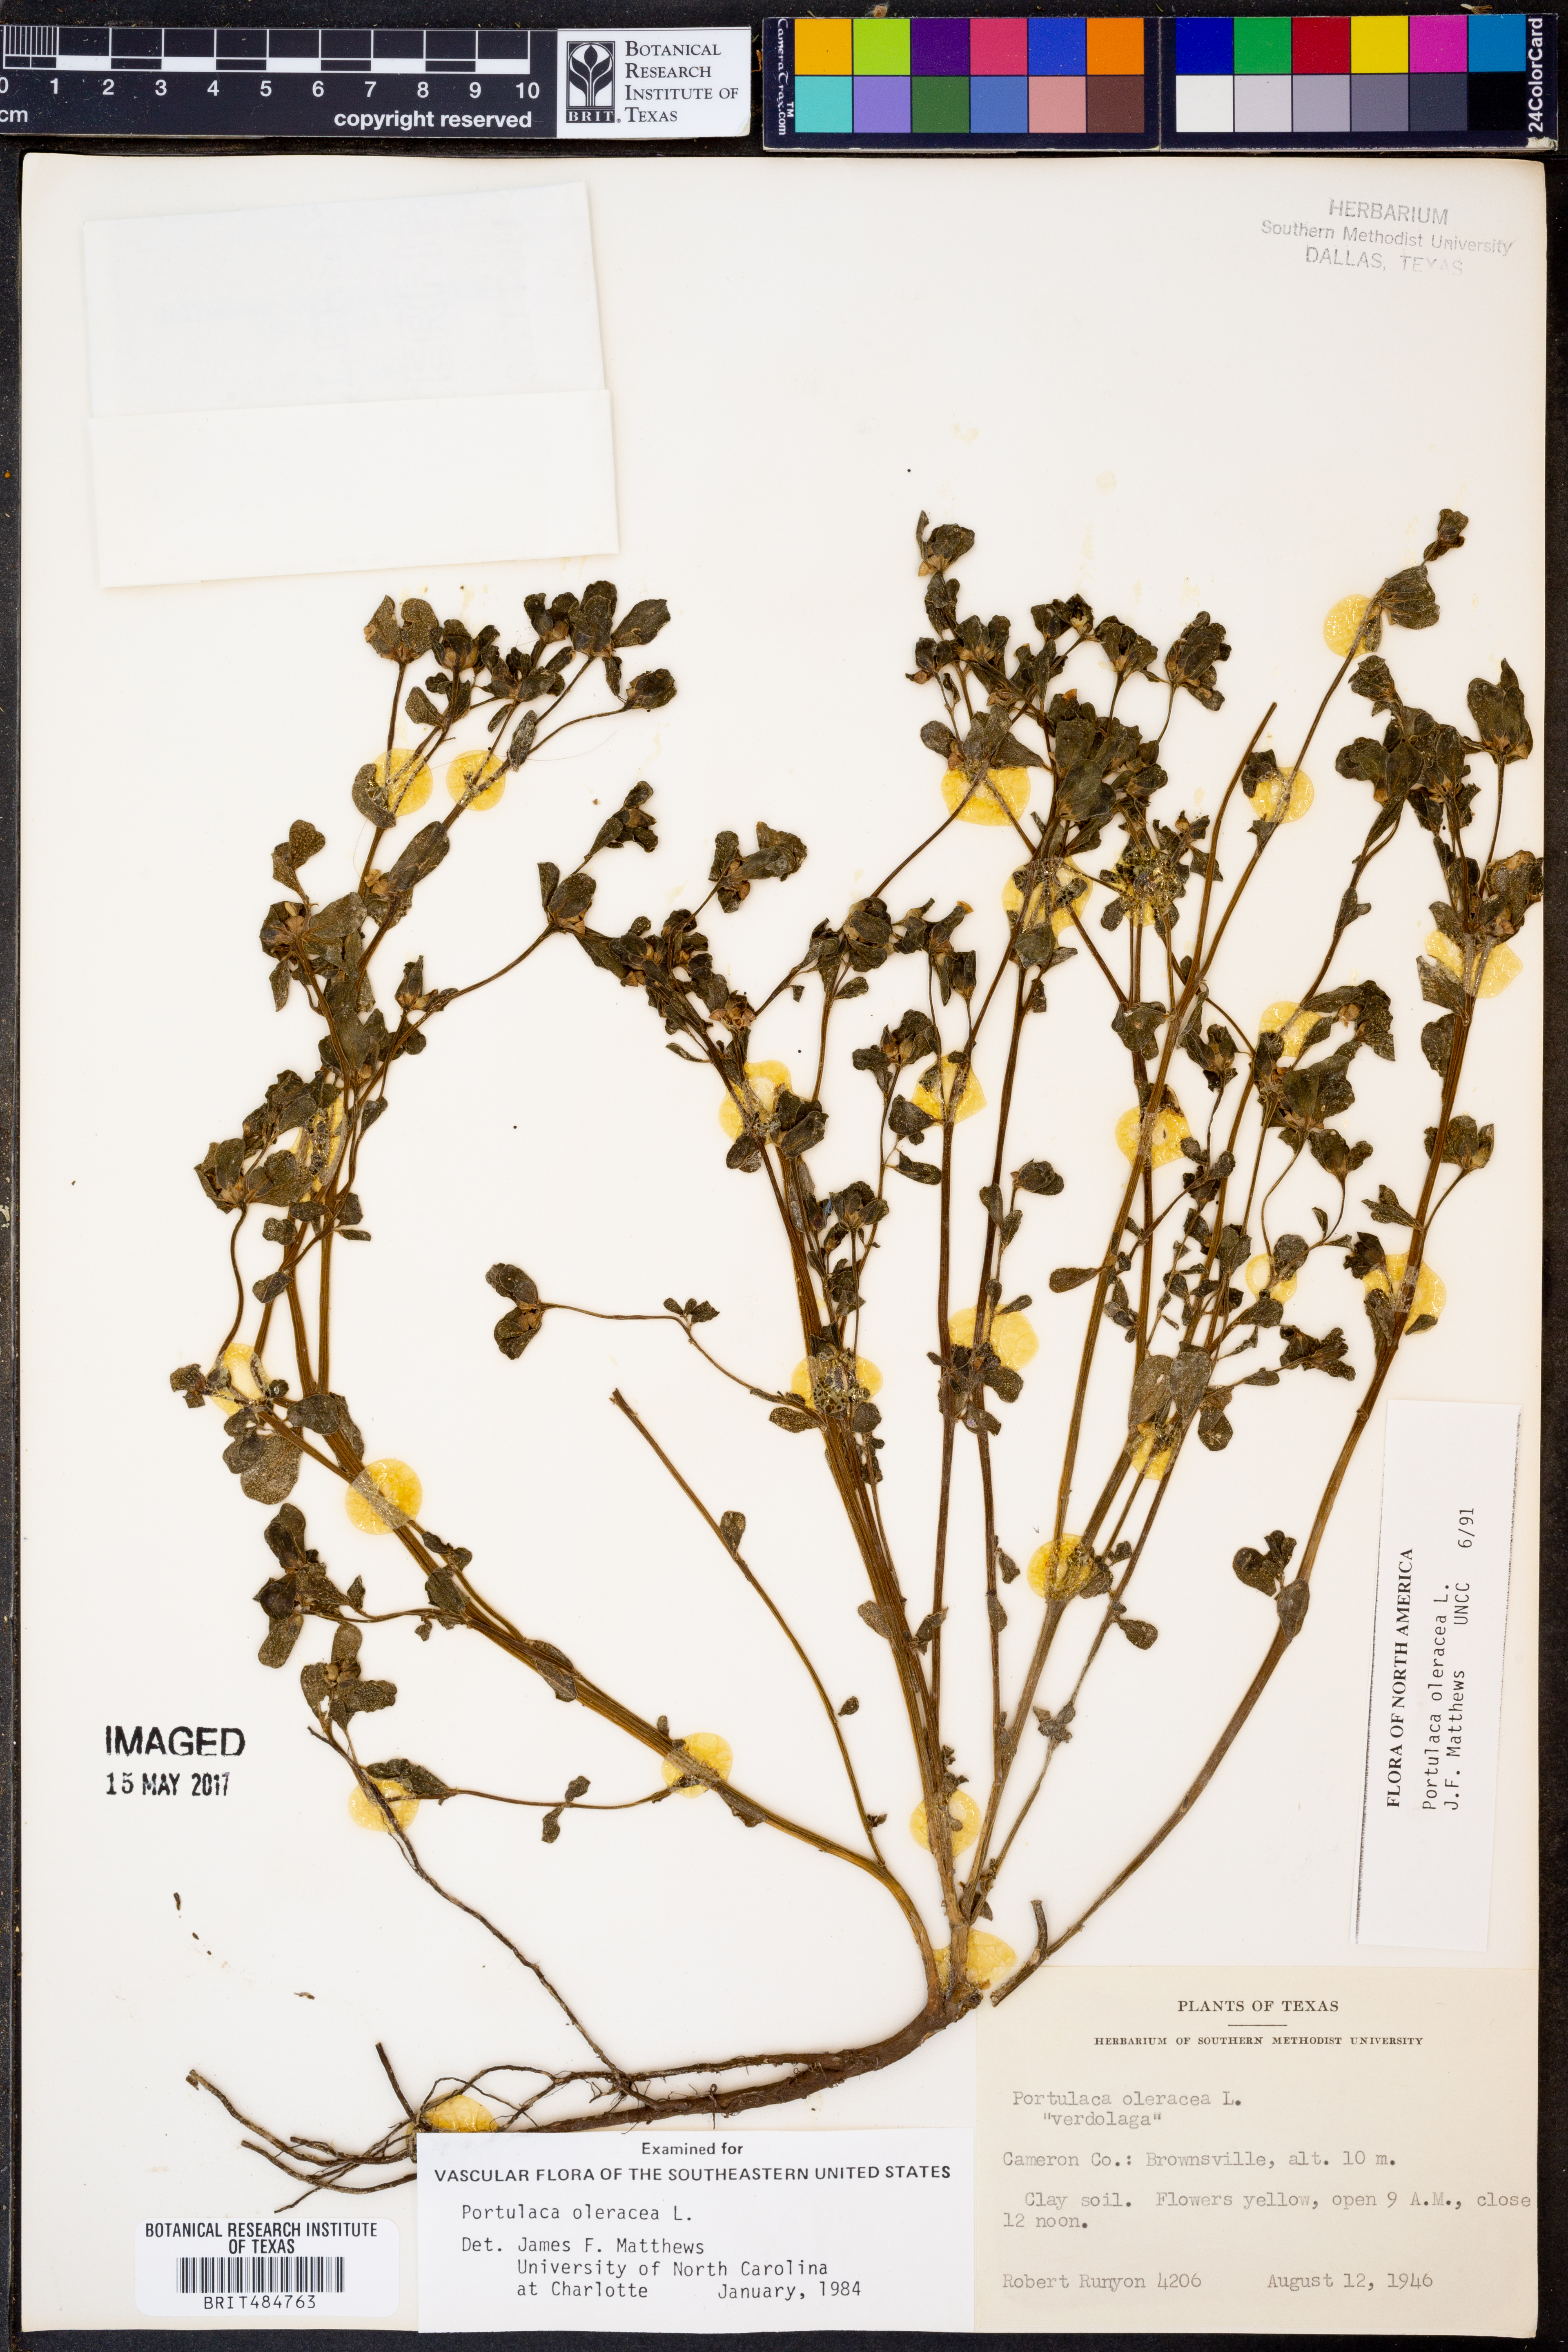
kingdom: Plantae
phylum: Tracheophyta
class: Magnoliopsida
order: Caryophyllales
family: Portulacaceae
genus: Portulaca
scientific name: Portulaca oleracea
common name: Common purslane
